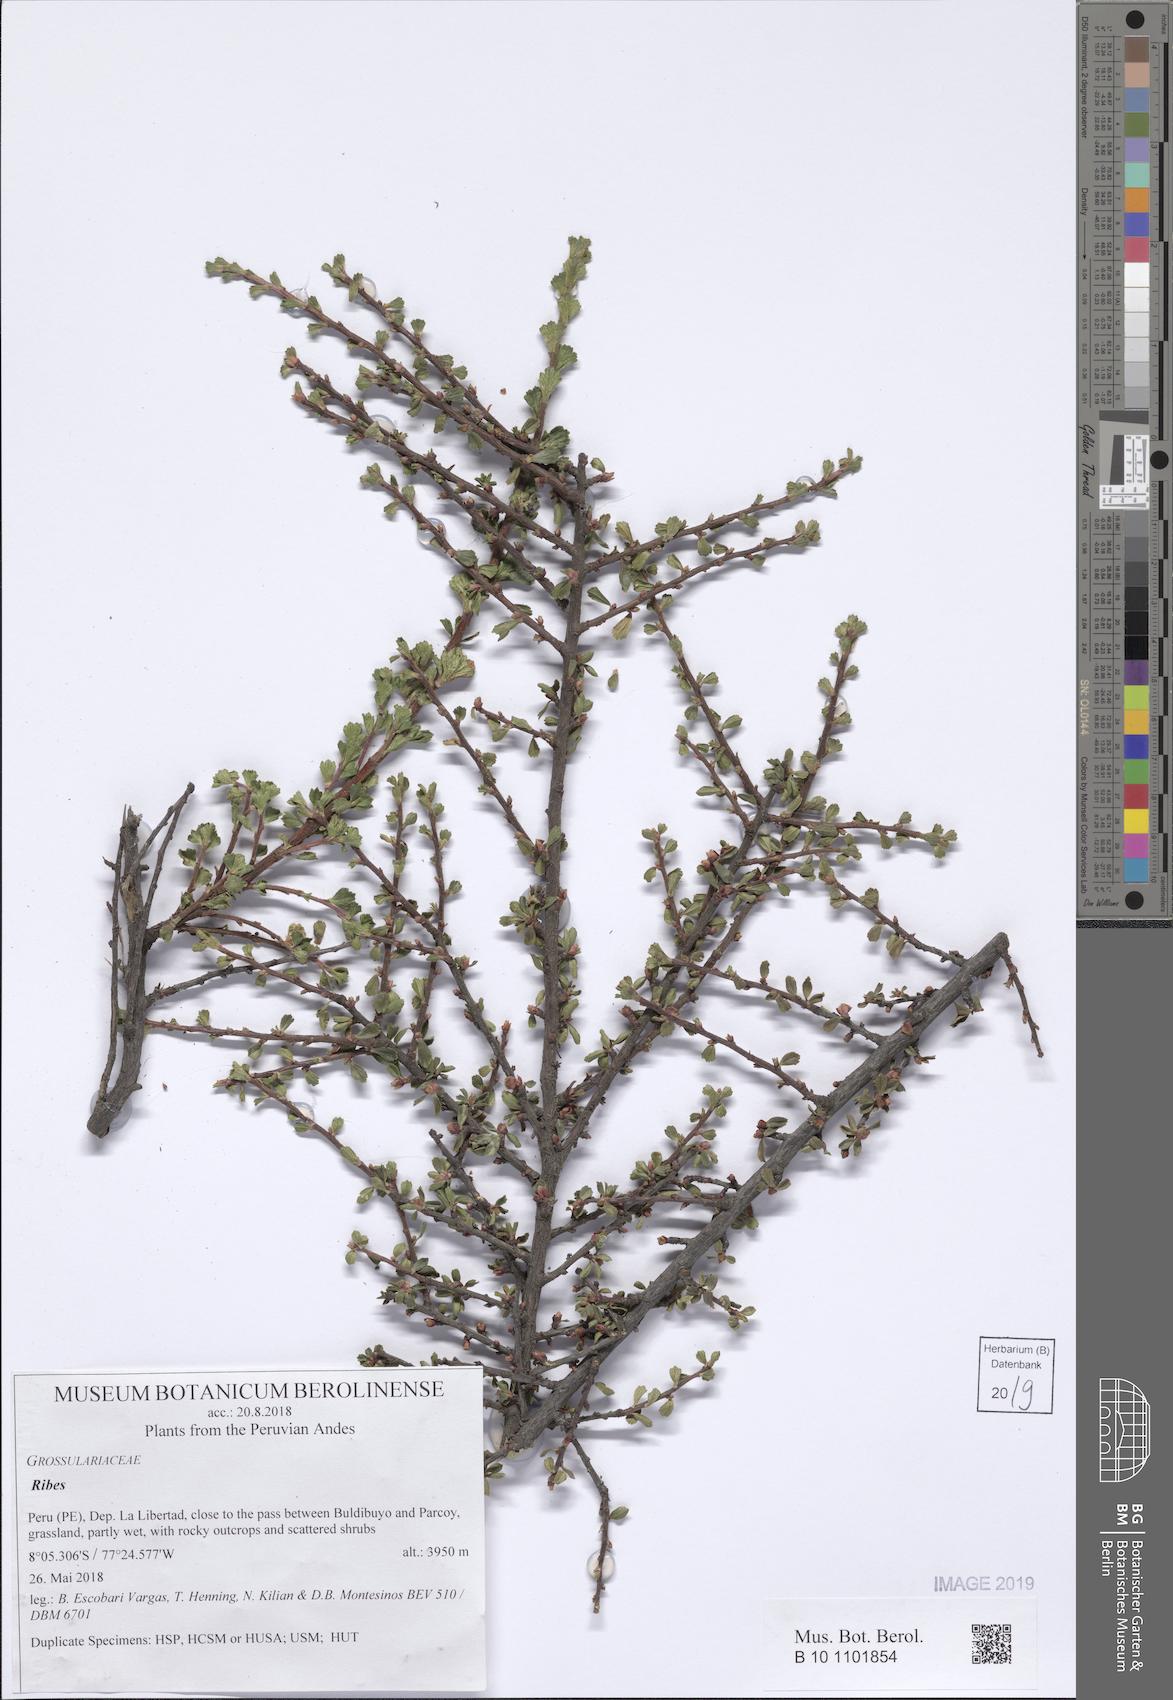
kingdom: Plantae
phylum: Tracheophyta
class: Magnoliopsida
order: Saxifragales
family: Grossulariaceae
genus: Ribes
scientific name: Ribes cuneifolium
